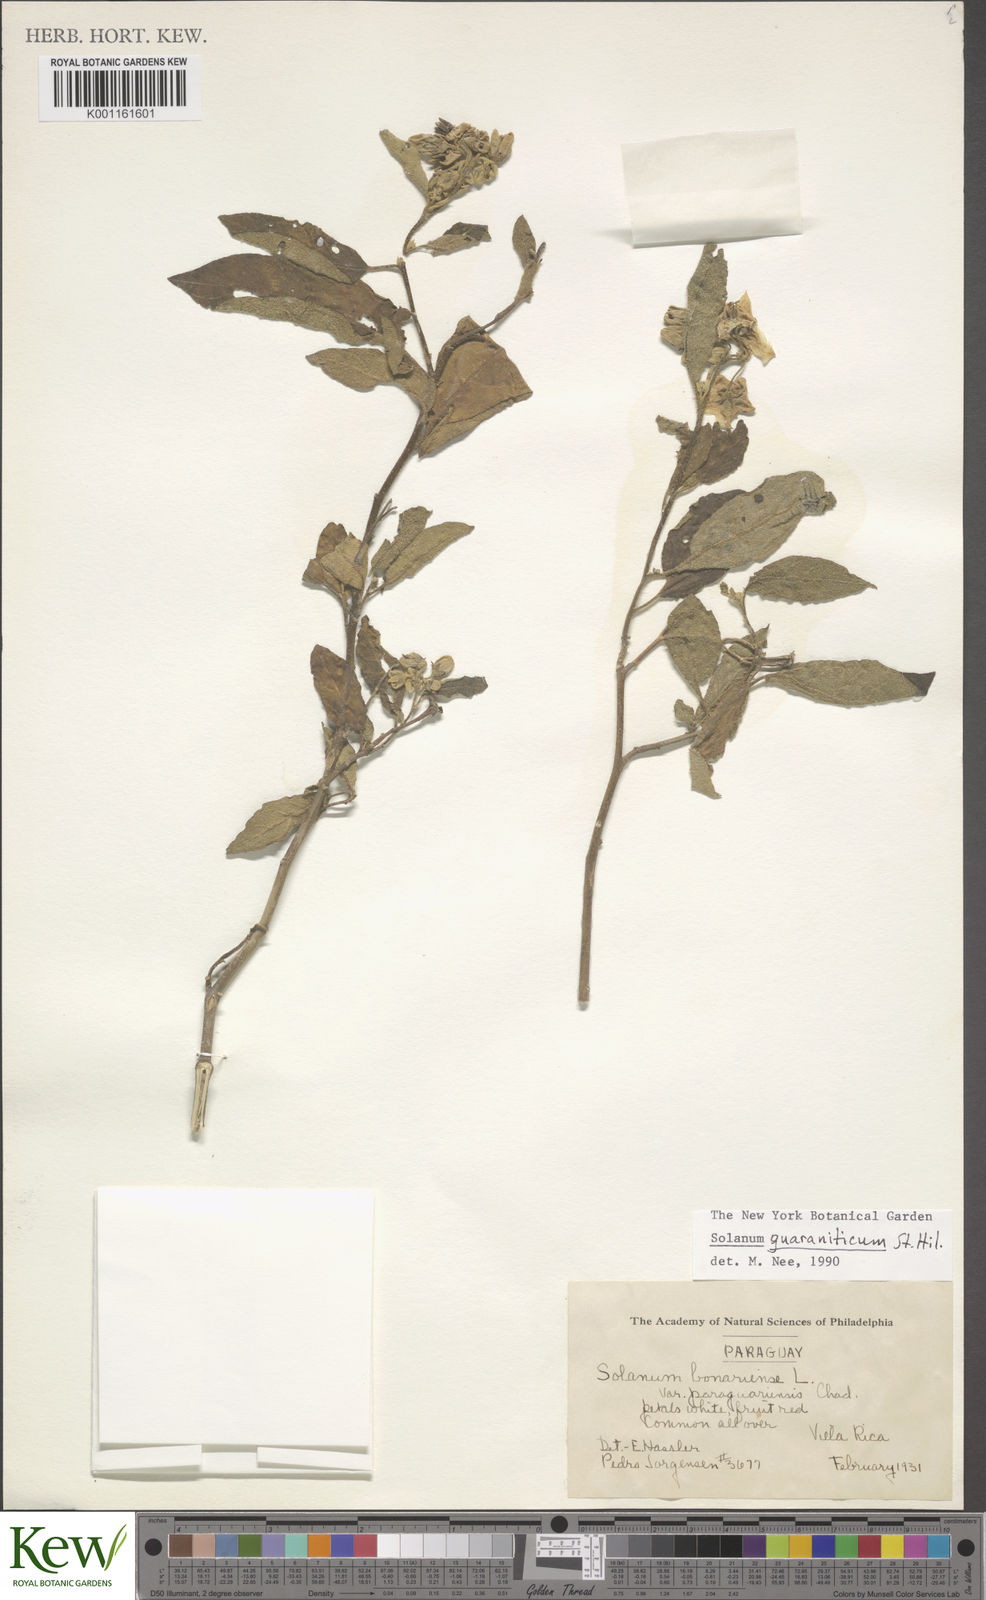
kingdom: Plantae
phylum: Tracheophyta
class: Magnoliopsida
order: Solanales
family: Solanaceae
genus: Solanum
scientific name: Solanum guaraniticum
